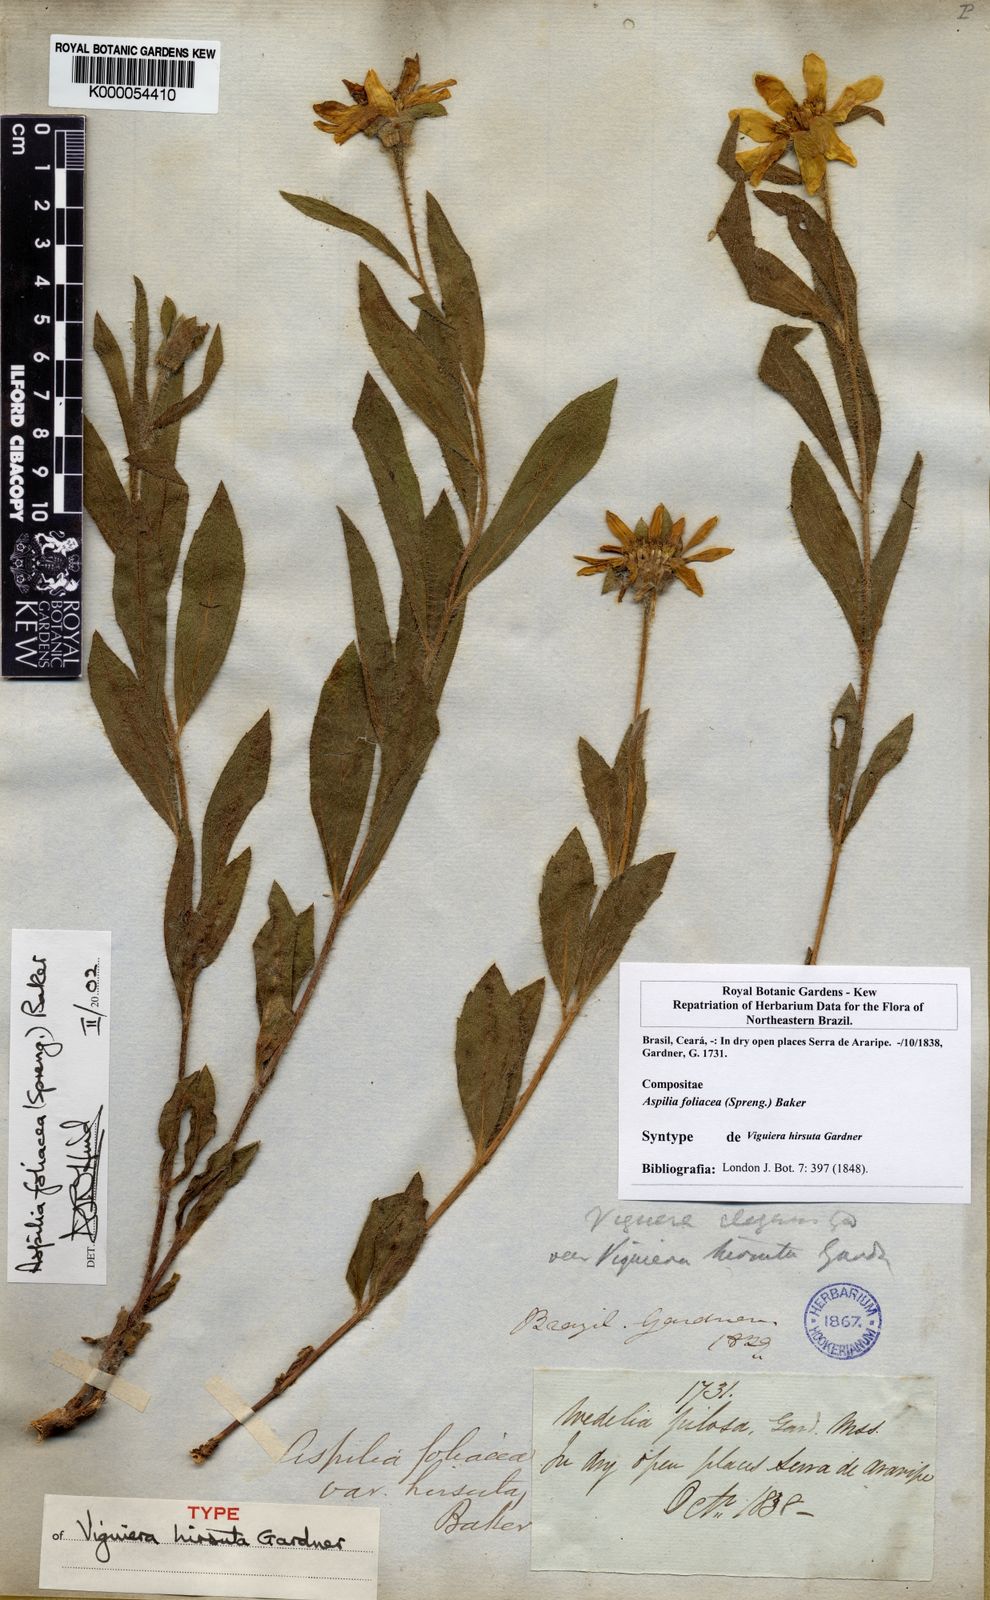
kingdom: Plantae
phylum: Tracheophyta
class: Magnoliopsida
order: Asterales
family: Asteraceae
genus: Wedelia
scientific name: Wedelia foliacea
